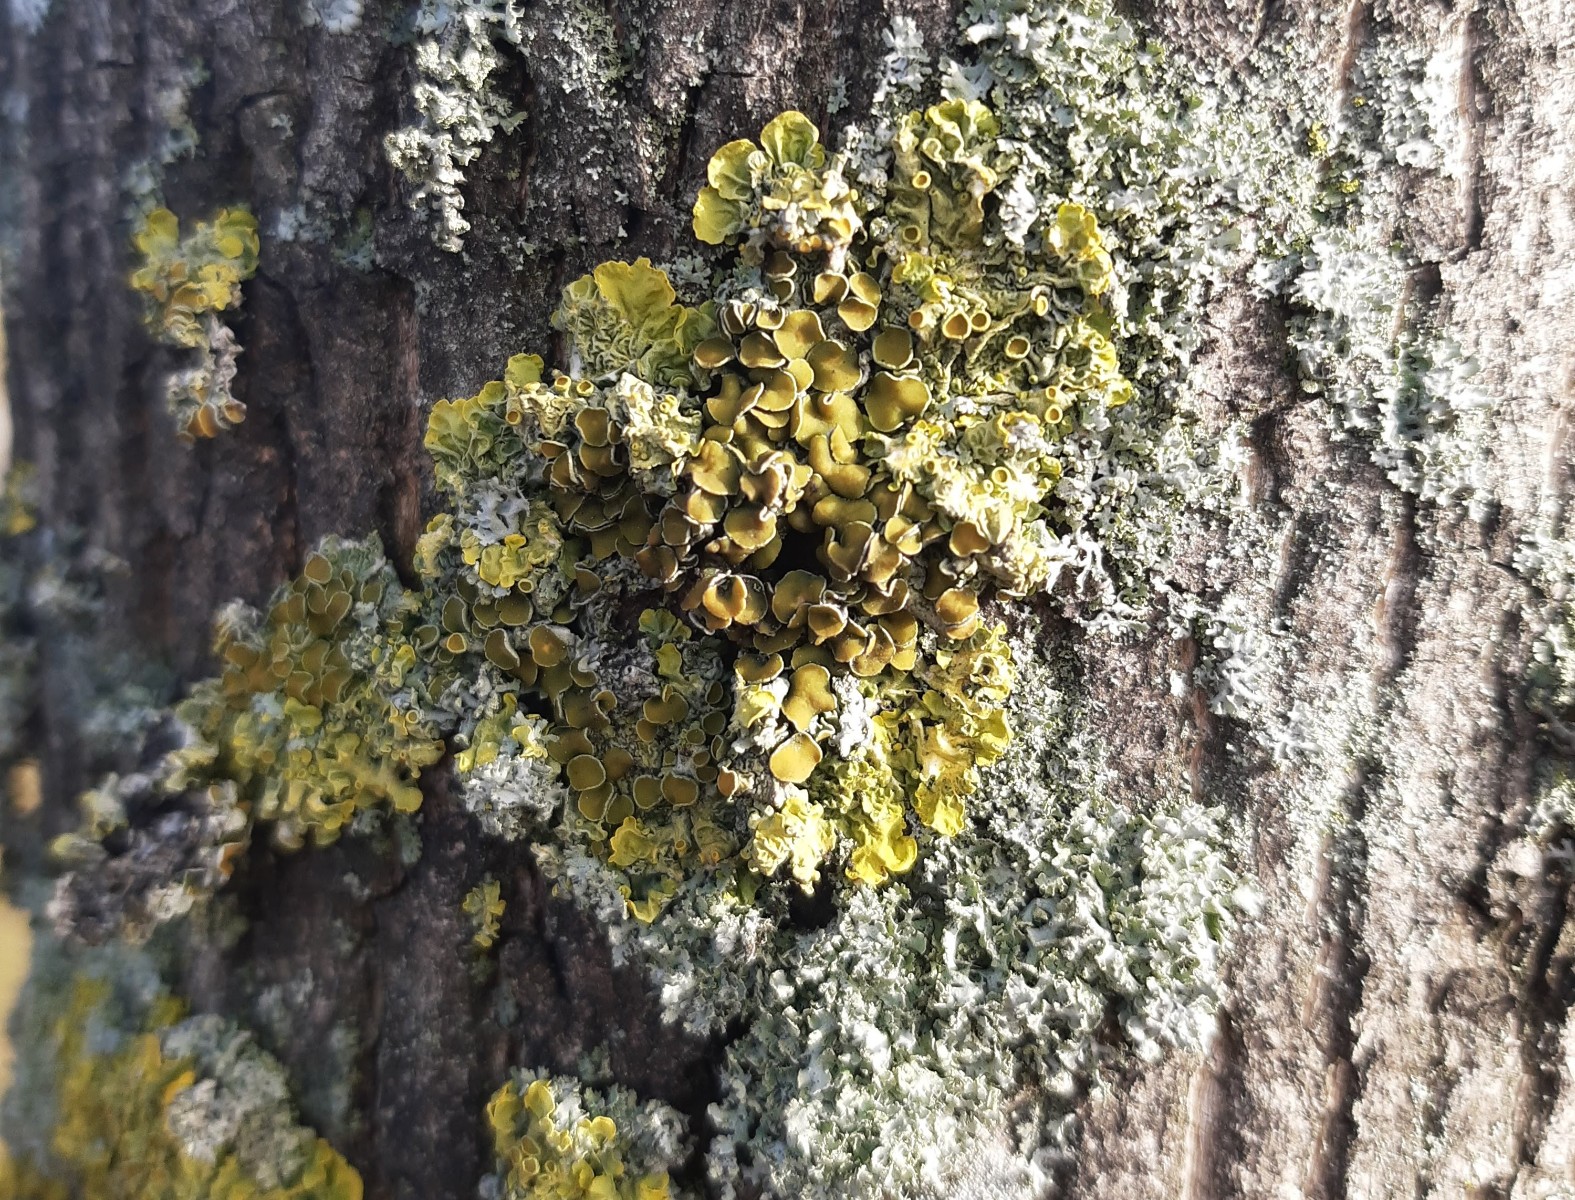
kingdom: Fungi
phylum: Ascomycota
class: Lecanoromycetes
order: Teloschistales
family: Teloschistaceae
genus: Xanthoria
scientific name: Xanthoria parietina
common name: almindelig væggelav
